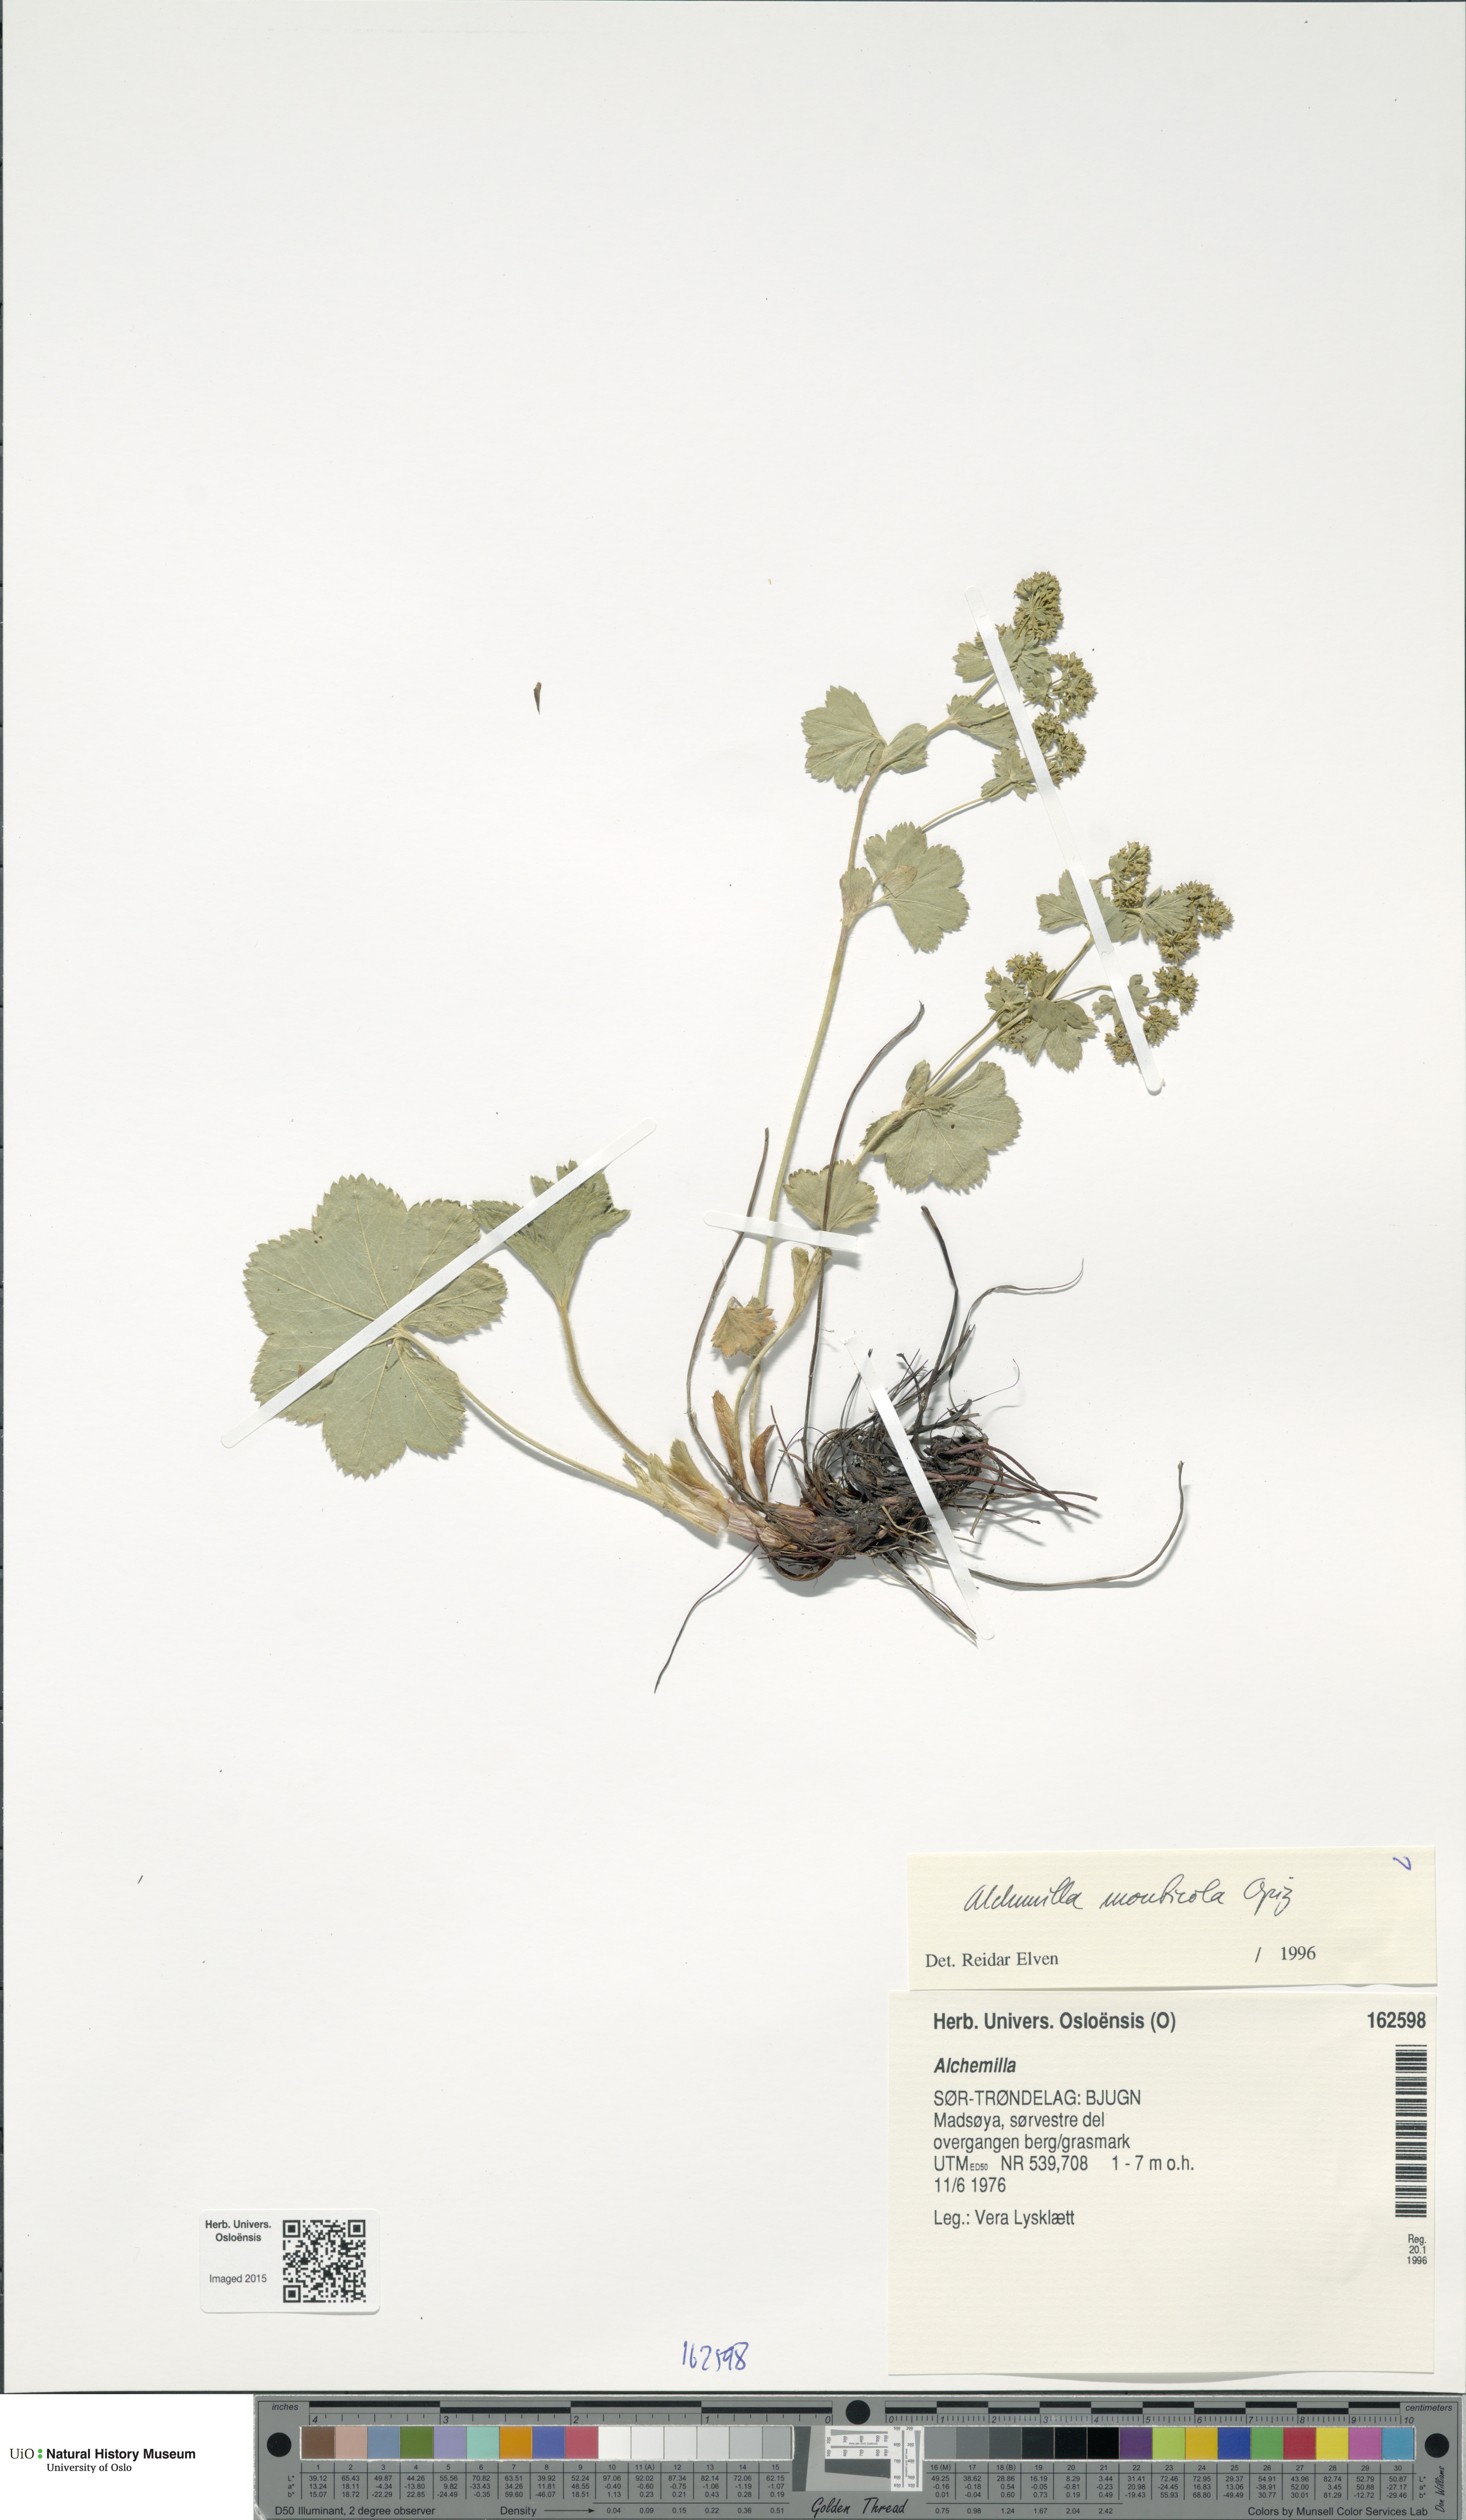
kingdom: Plantae
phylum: Tracheophyta
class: Magnoliopsida
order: Rosales
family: Rosaceae
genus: Alchemilla
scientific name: Alchemilla monticola
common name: Hairy lady's mantle
